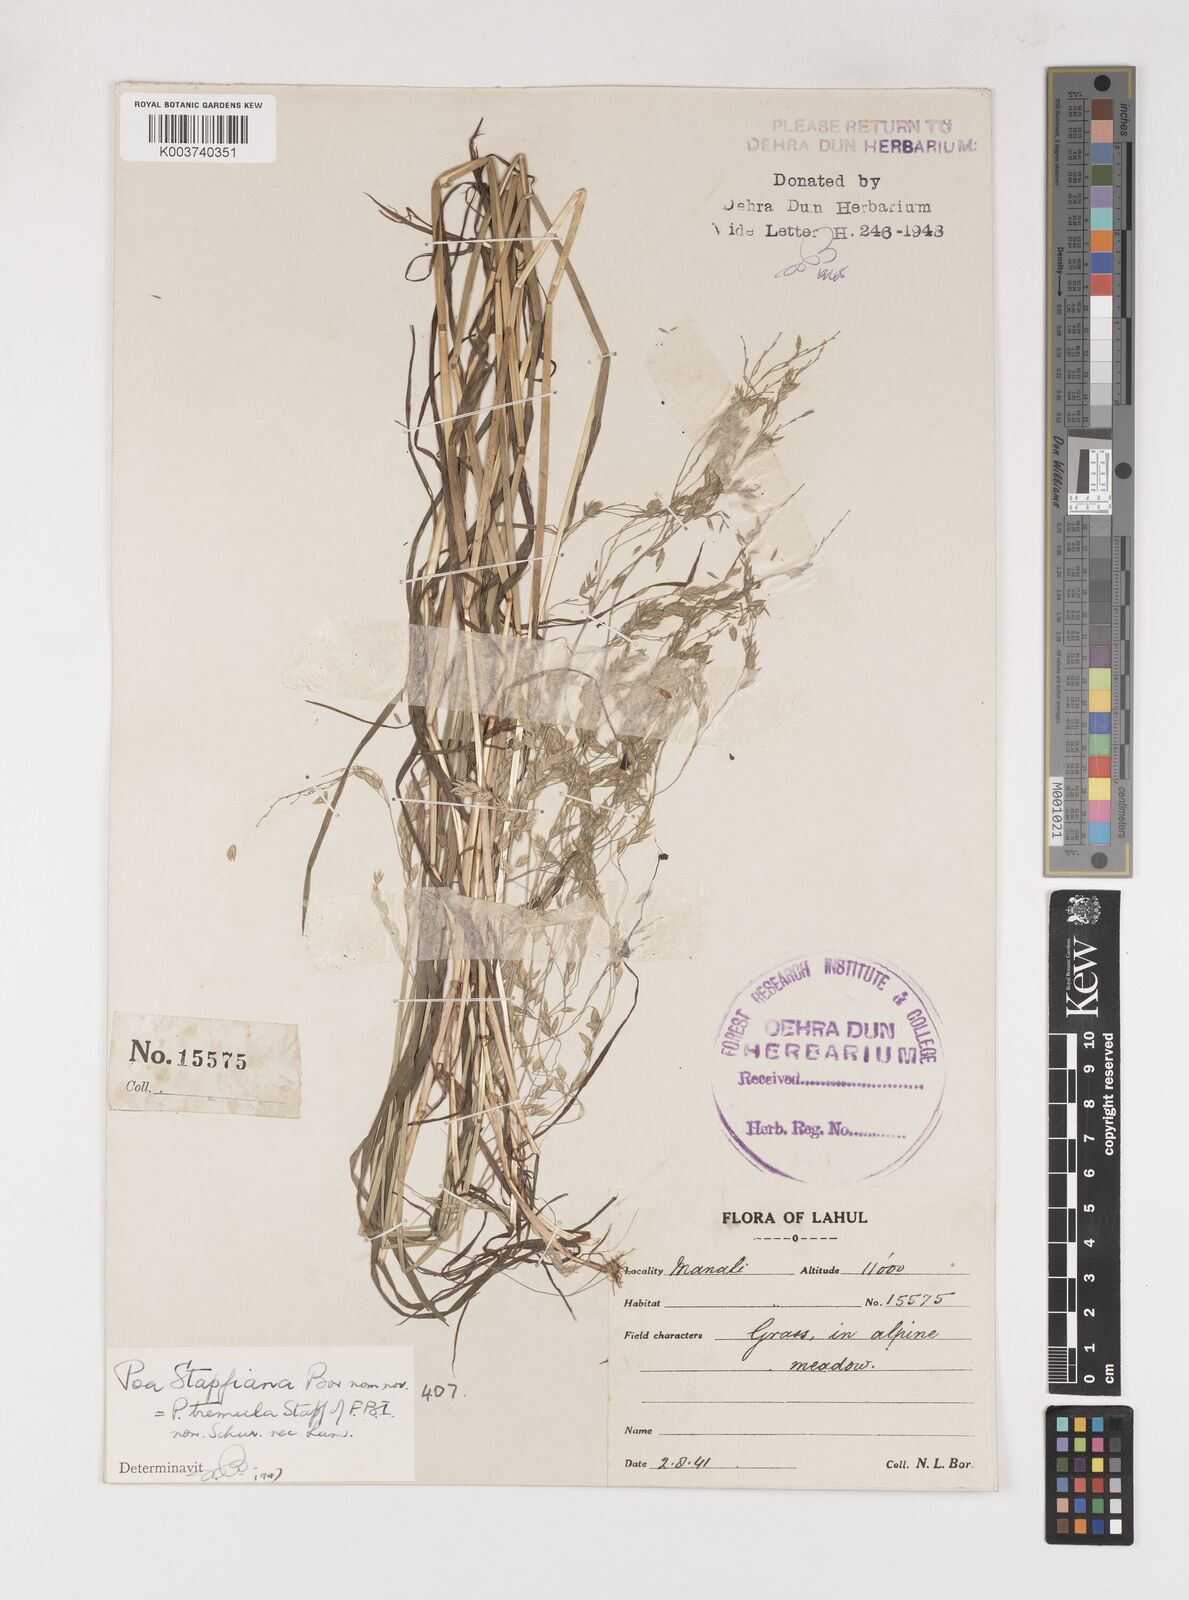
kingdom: Plantae
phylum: Tracheophyta
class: Liliopsida
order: Poales
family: Poaceae
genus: Poa
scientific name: Poa stapfiana
